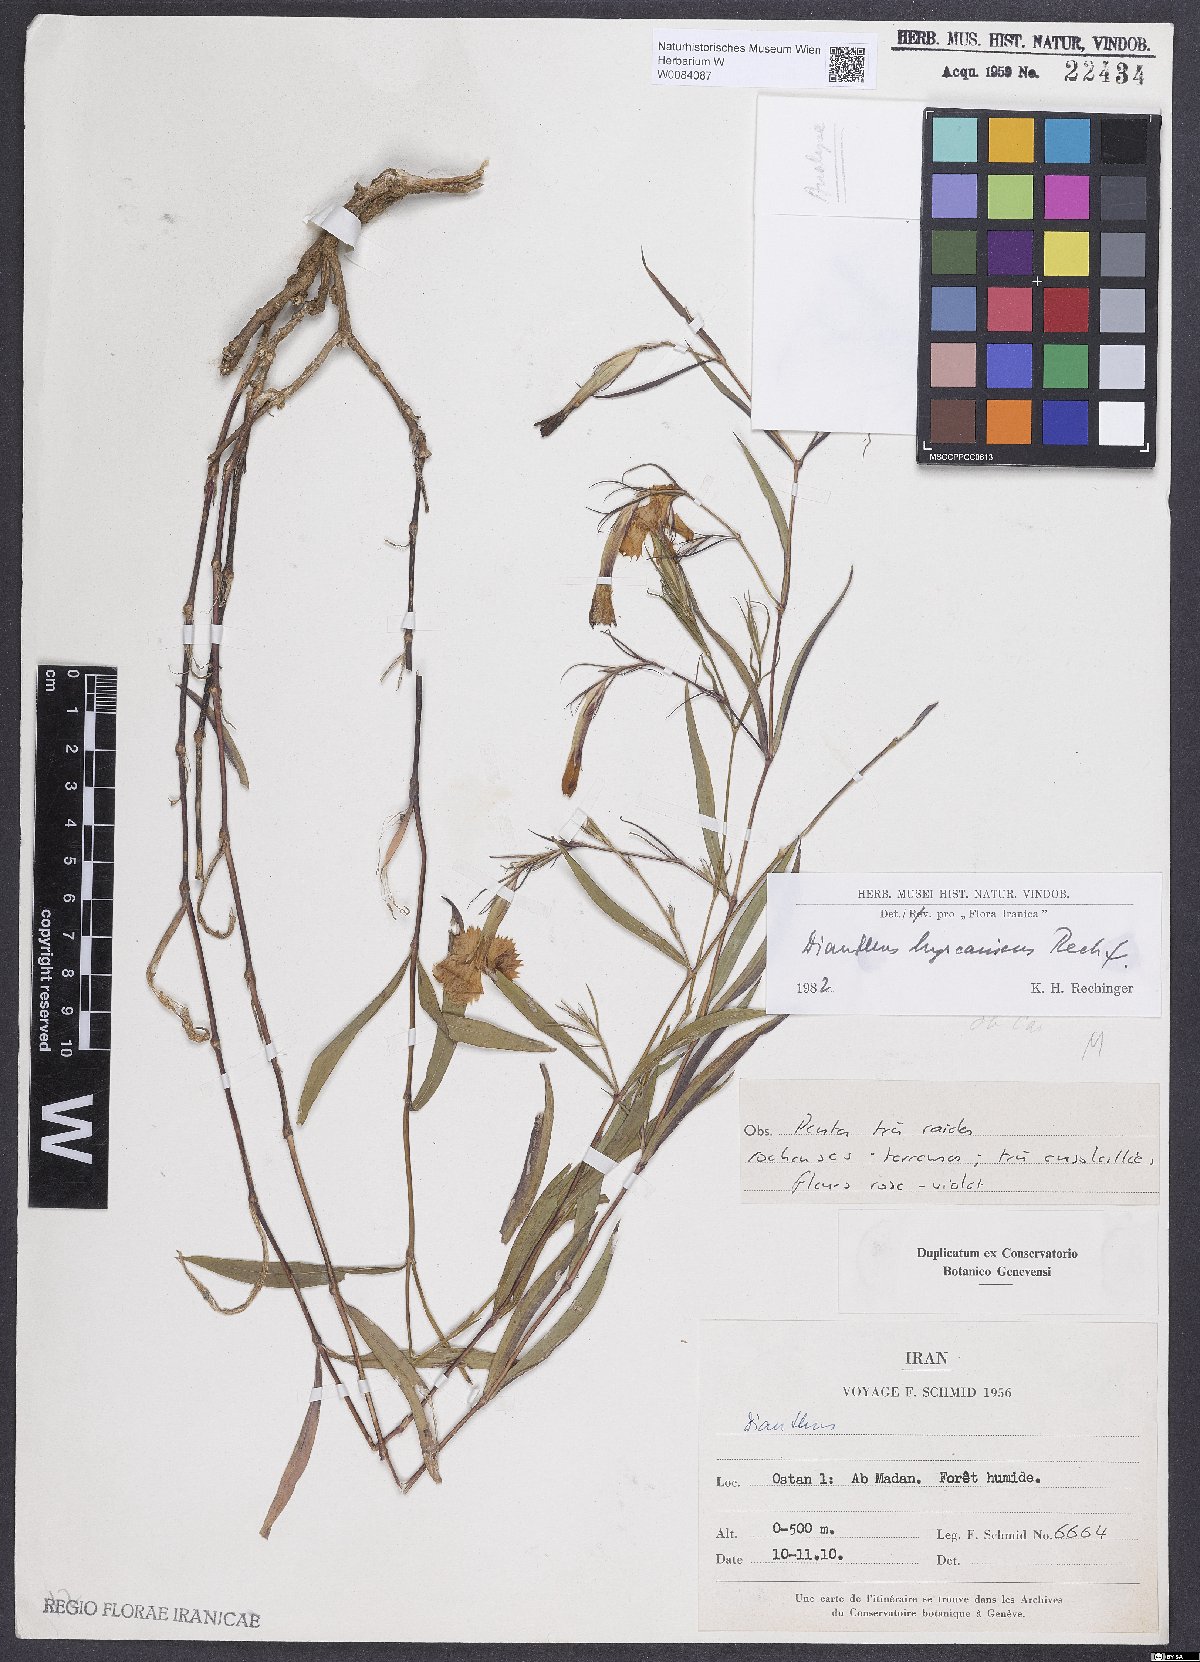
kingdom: Plantae
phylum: Tracheophyta
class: Magnoliopsida
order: Caryophyllales
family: Caryophyllaceae
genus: Dianthus
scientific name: Dianthus hyrcanicus
